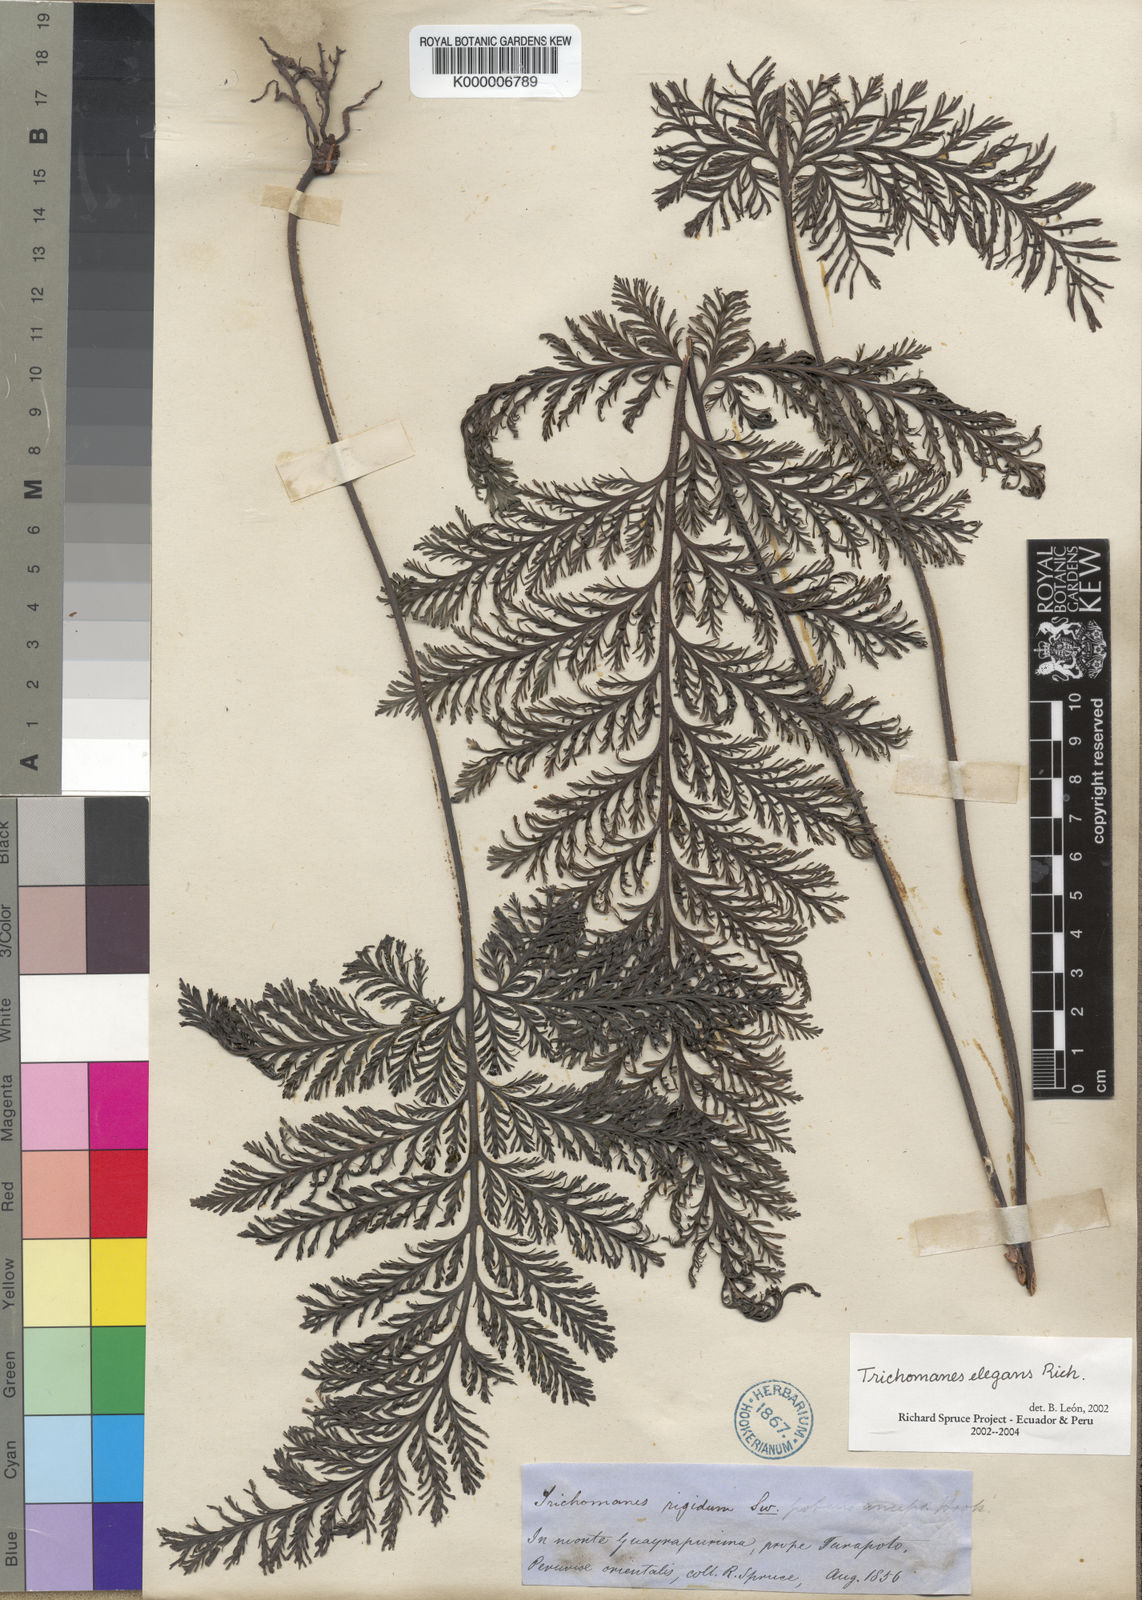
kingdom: Plantae
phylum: Tracheophyta
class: Polypodiopsida
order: Hymenophyllales
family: Hymenophyllaceae
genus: Trichomanes
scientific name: Trichomanes elegans
